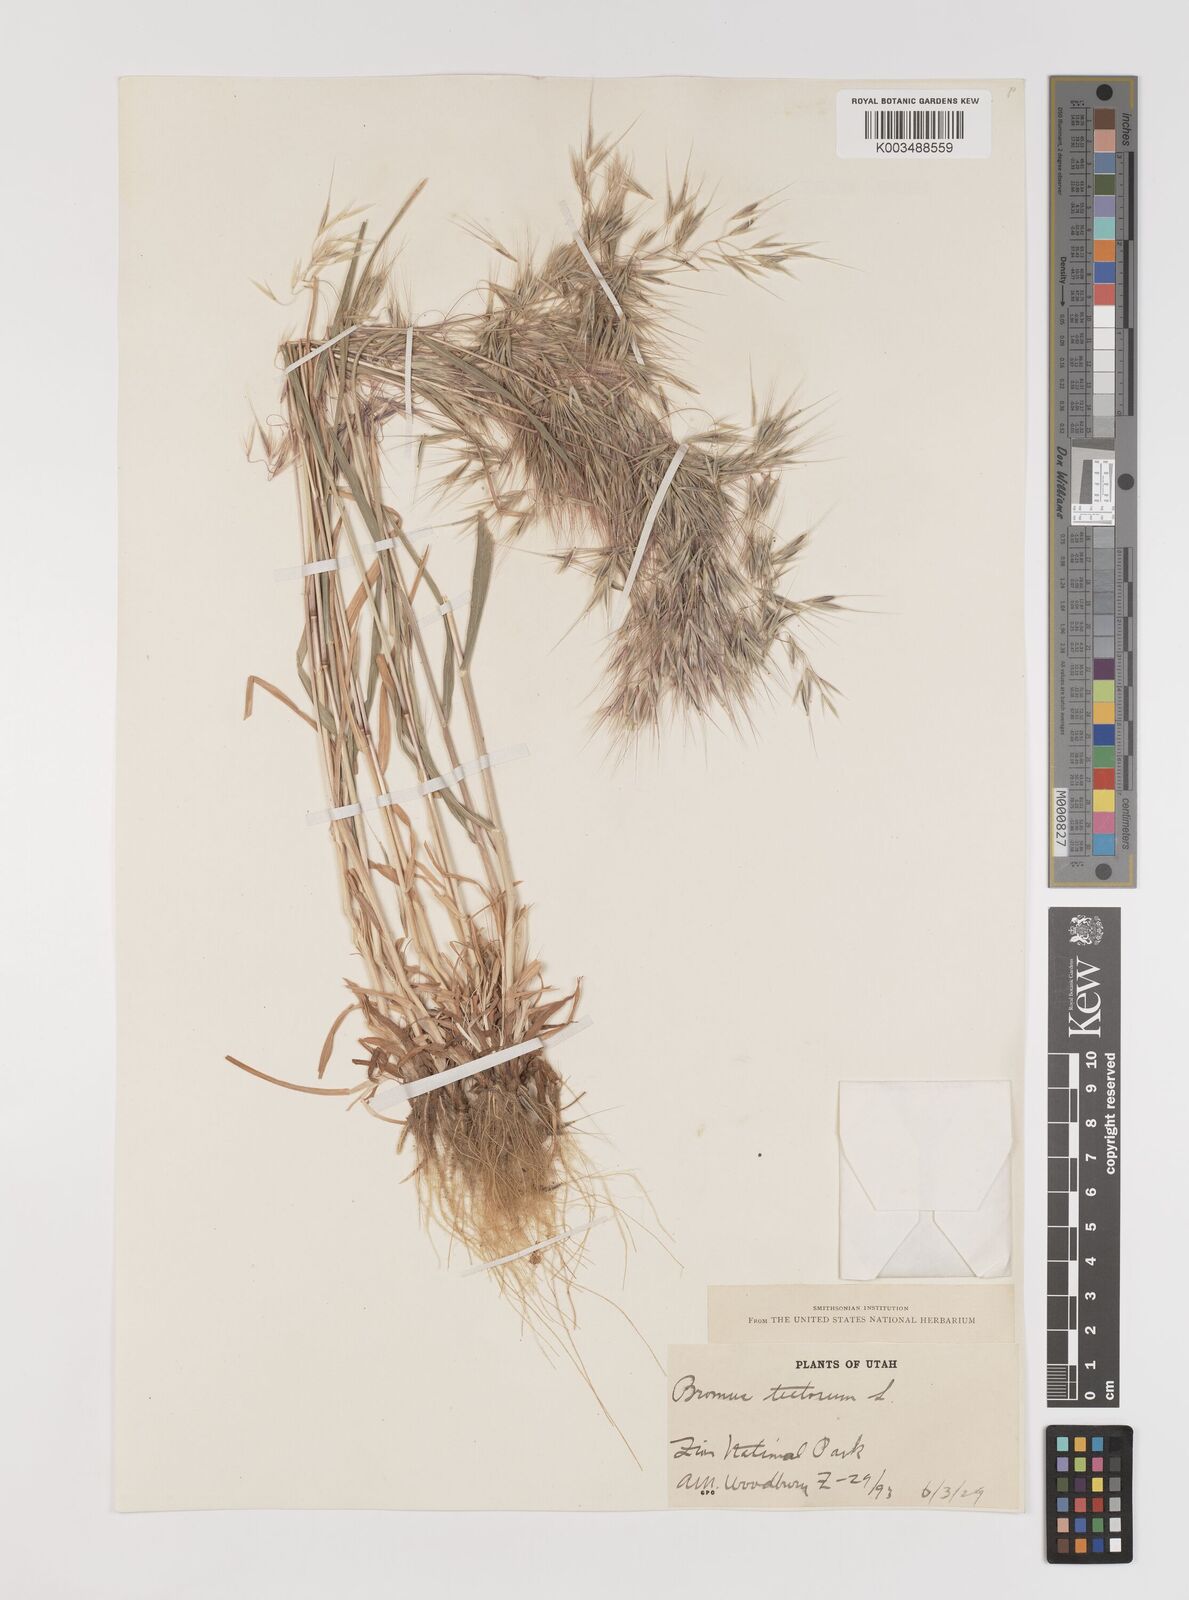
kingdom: Plantae
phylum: Tracheophyta
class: Liliopsida
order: Poales
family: Poaceae
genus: Bromus
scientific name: Bromus tectorum
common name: Cheatgrass
